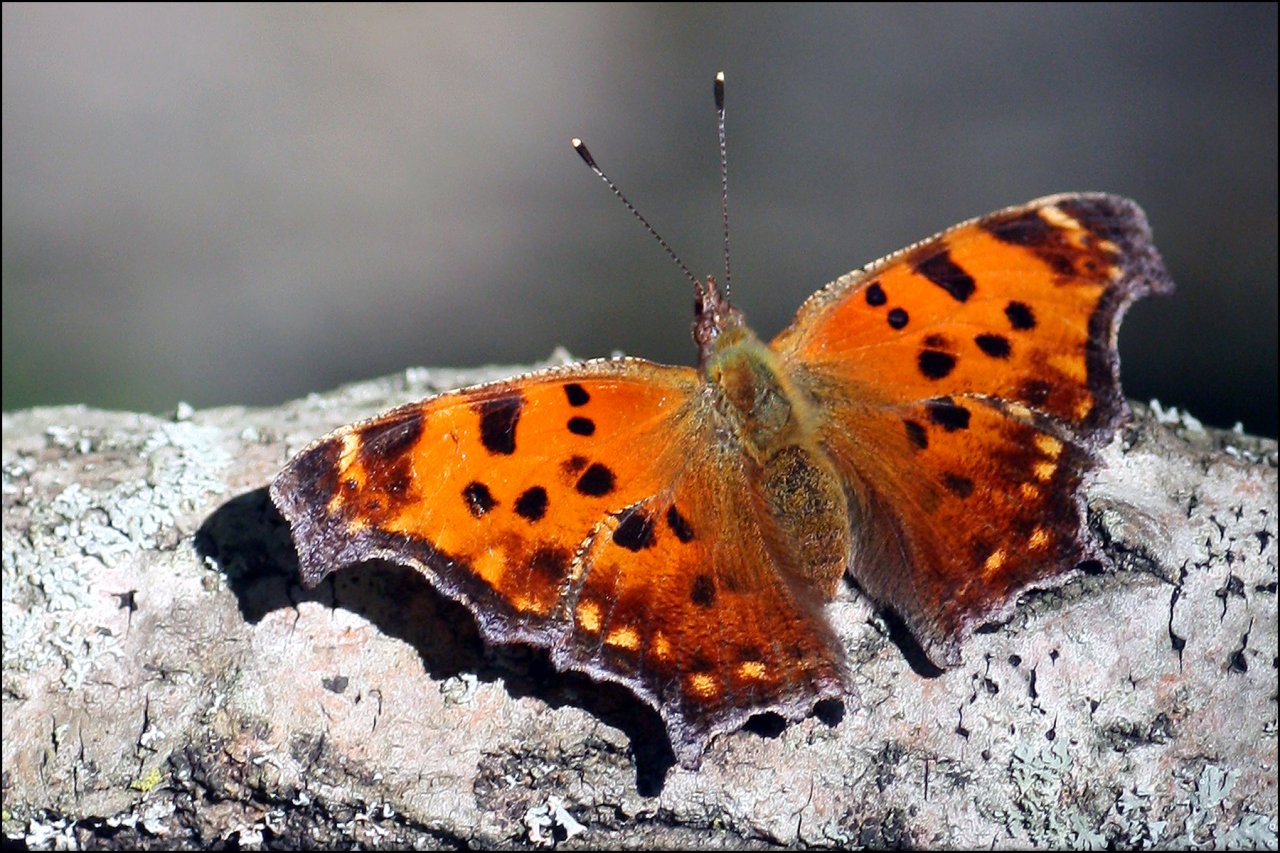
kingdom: Animalia
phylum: Arthropoda
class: Insecta
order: Lepidoptera
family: Nymphalidae
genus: Polygonia
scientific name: Polygonia comma
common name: Eastern Comma
